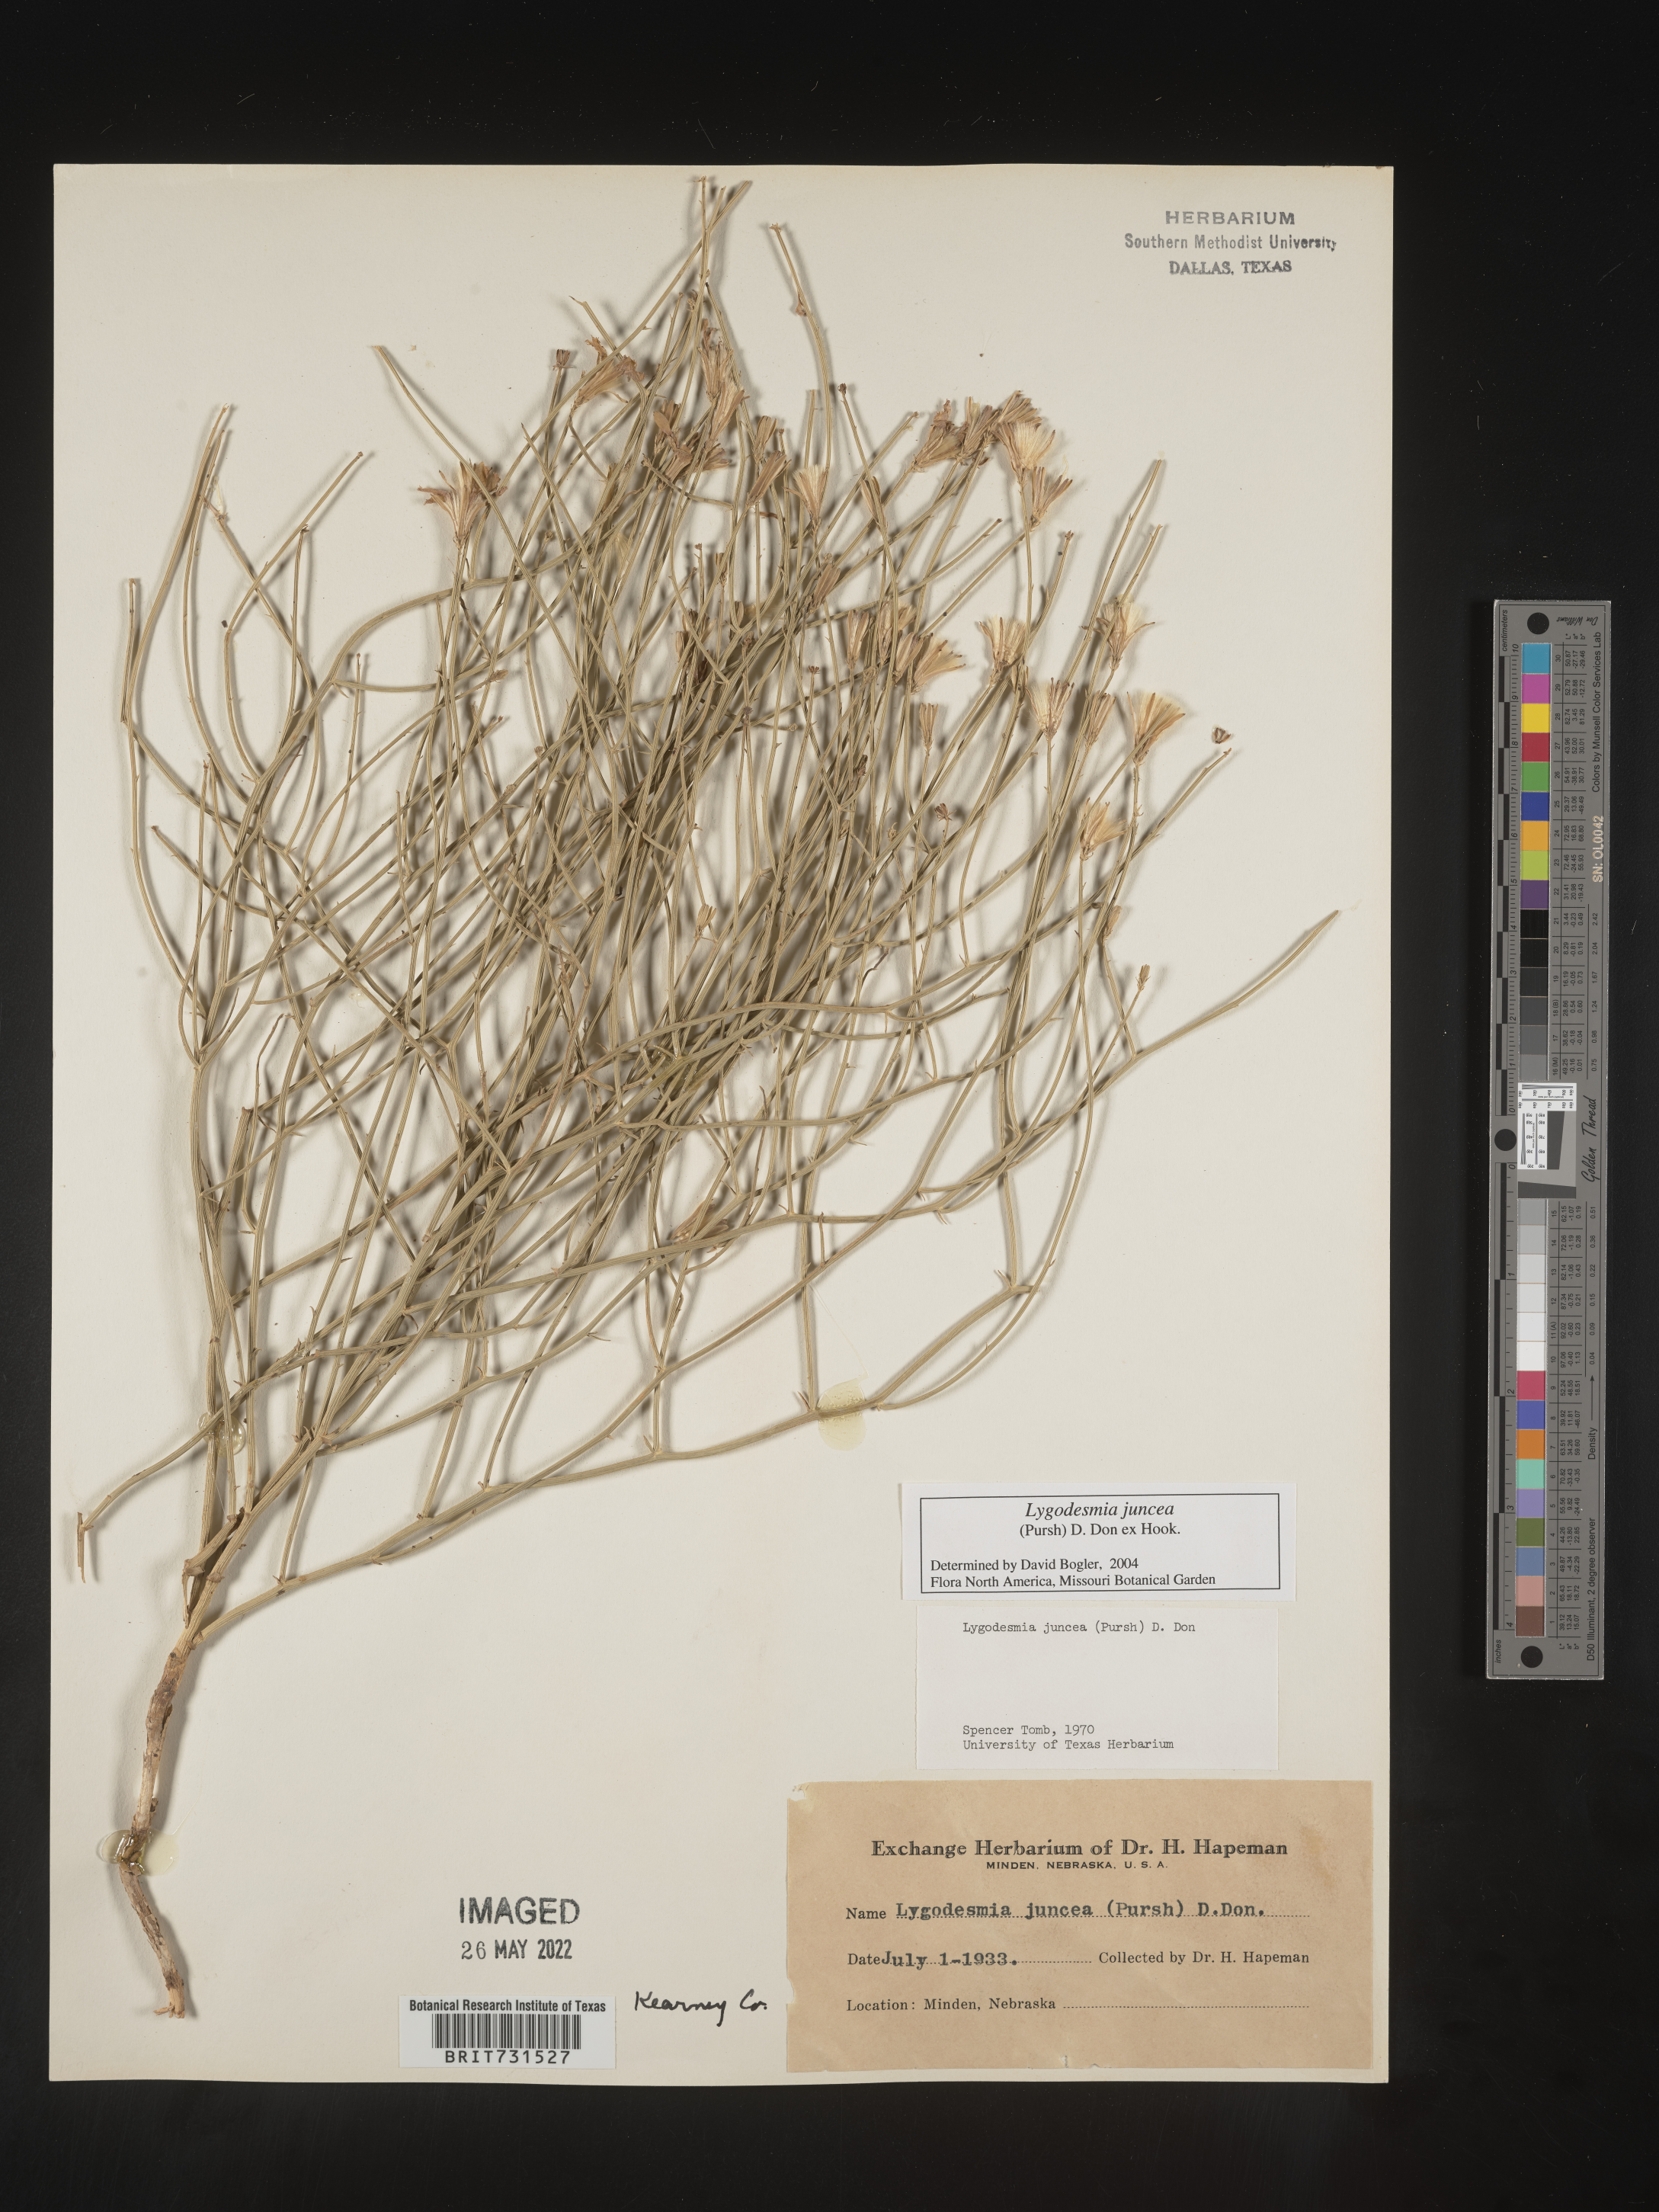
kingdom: Plantae
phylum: Tracheophyta
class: Magnoliopsida
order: Asterales
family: Asteraceae
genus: Lygodesmia
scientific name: Lygodesmia juncea
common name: Common skeletonweed
